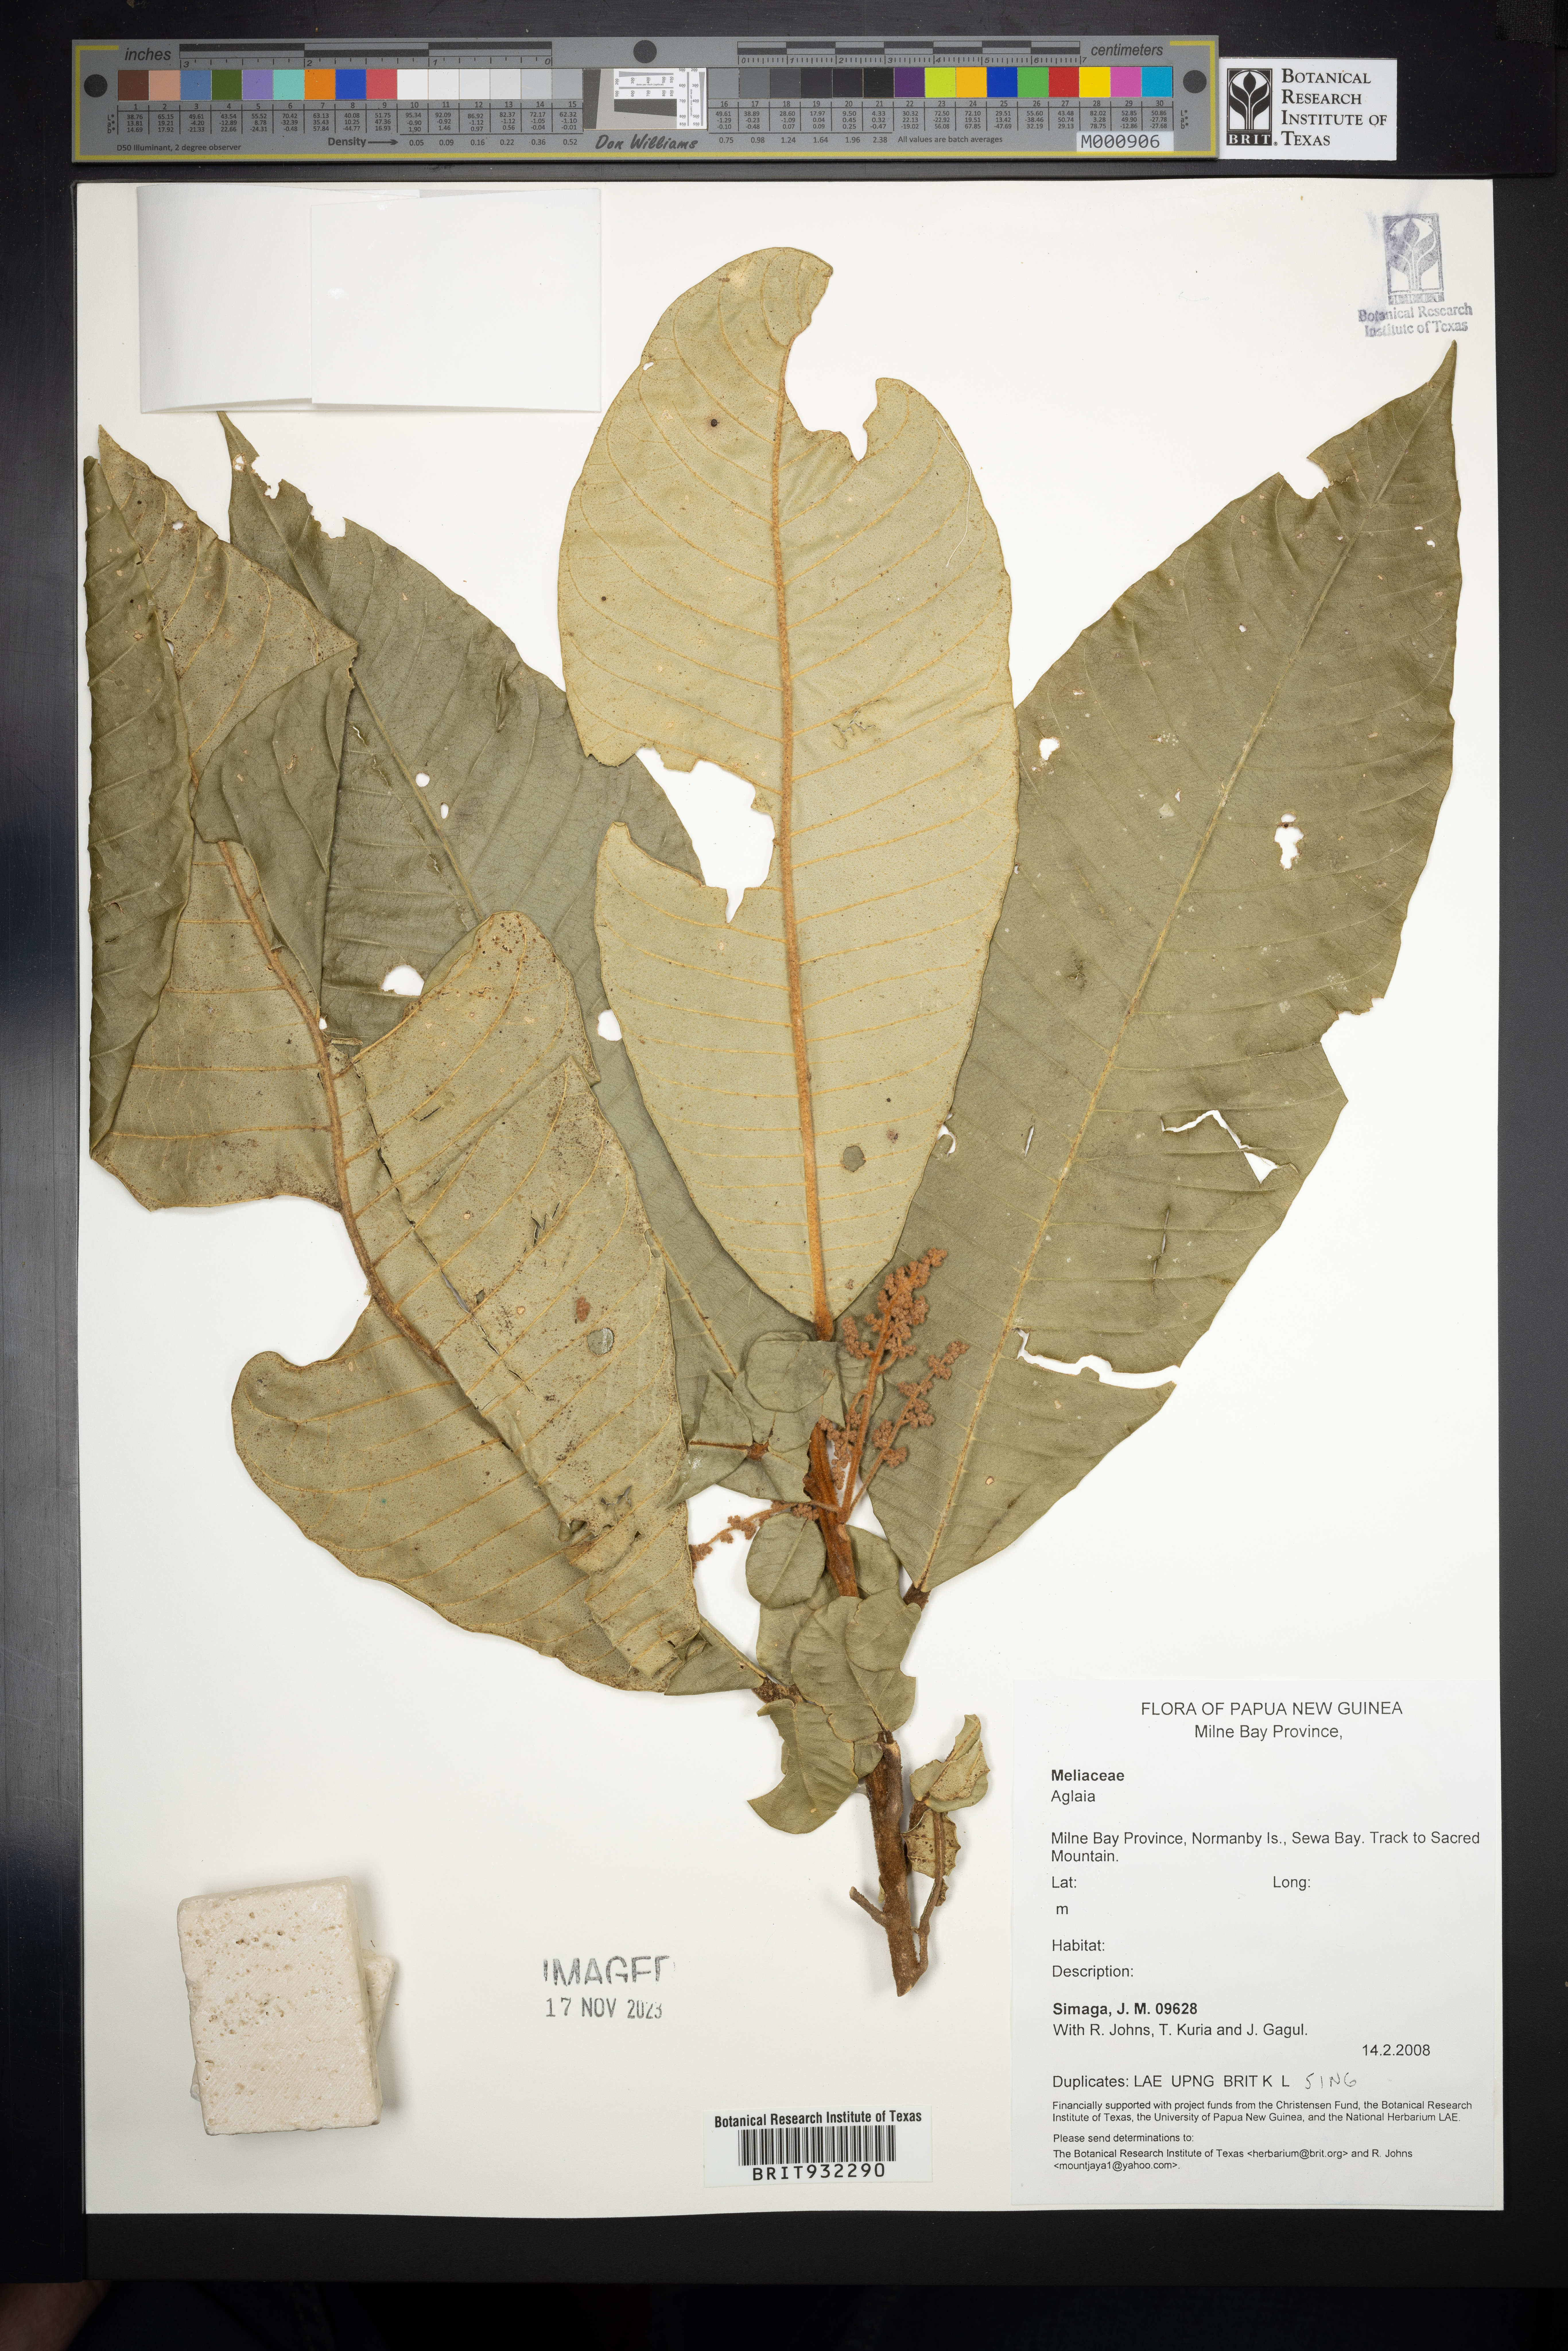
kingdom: Plantae
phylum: Tracheophyta
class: Magnoliopsida
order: Sapindales
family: Meliaceae
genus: Aglaia
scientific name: Aglaia
